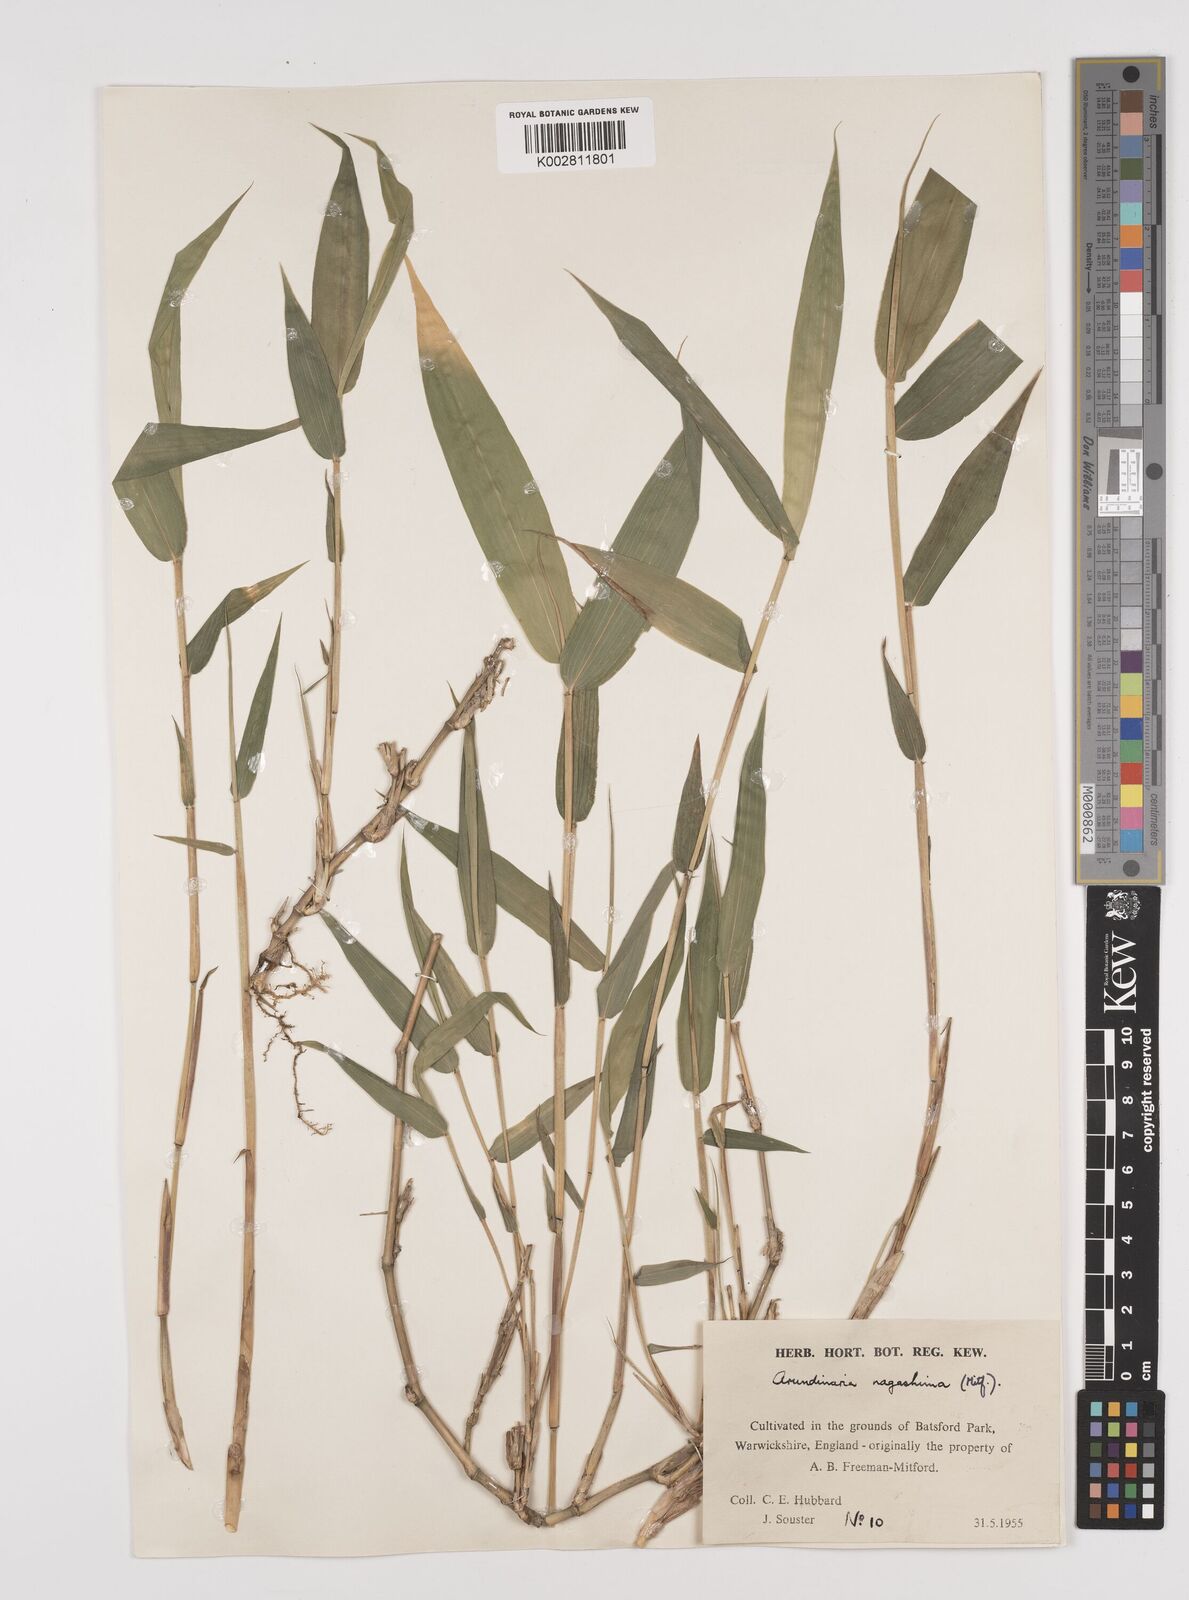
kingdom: Plantae
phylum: Tracheophyta
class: Liliopsida
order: Poales
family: Poaceae
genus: Pseudosasa
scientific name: Pseudosasa humilis
